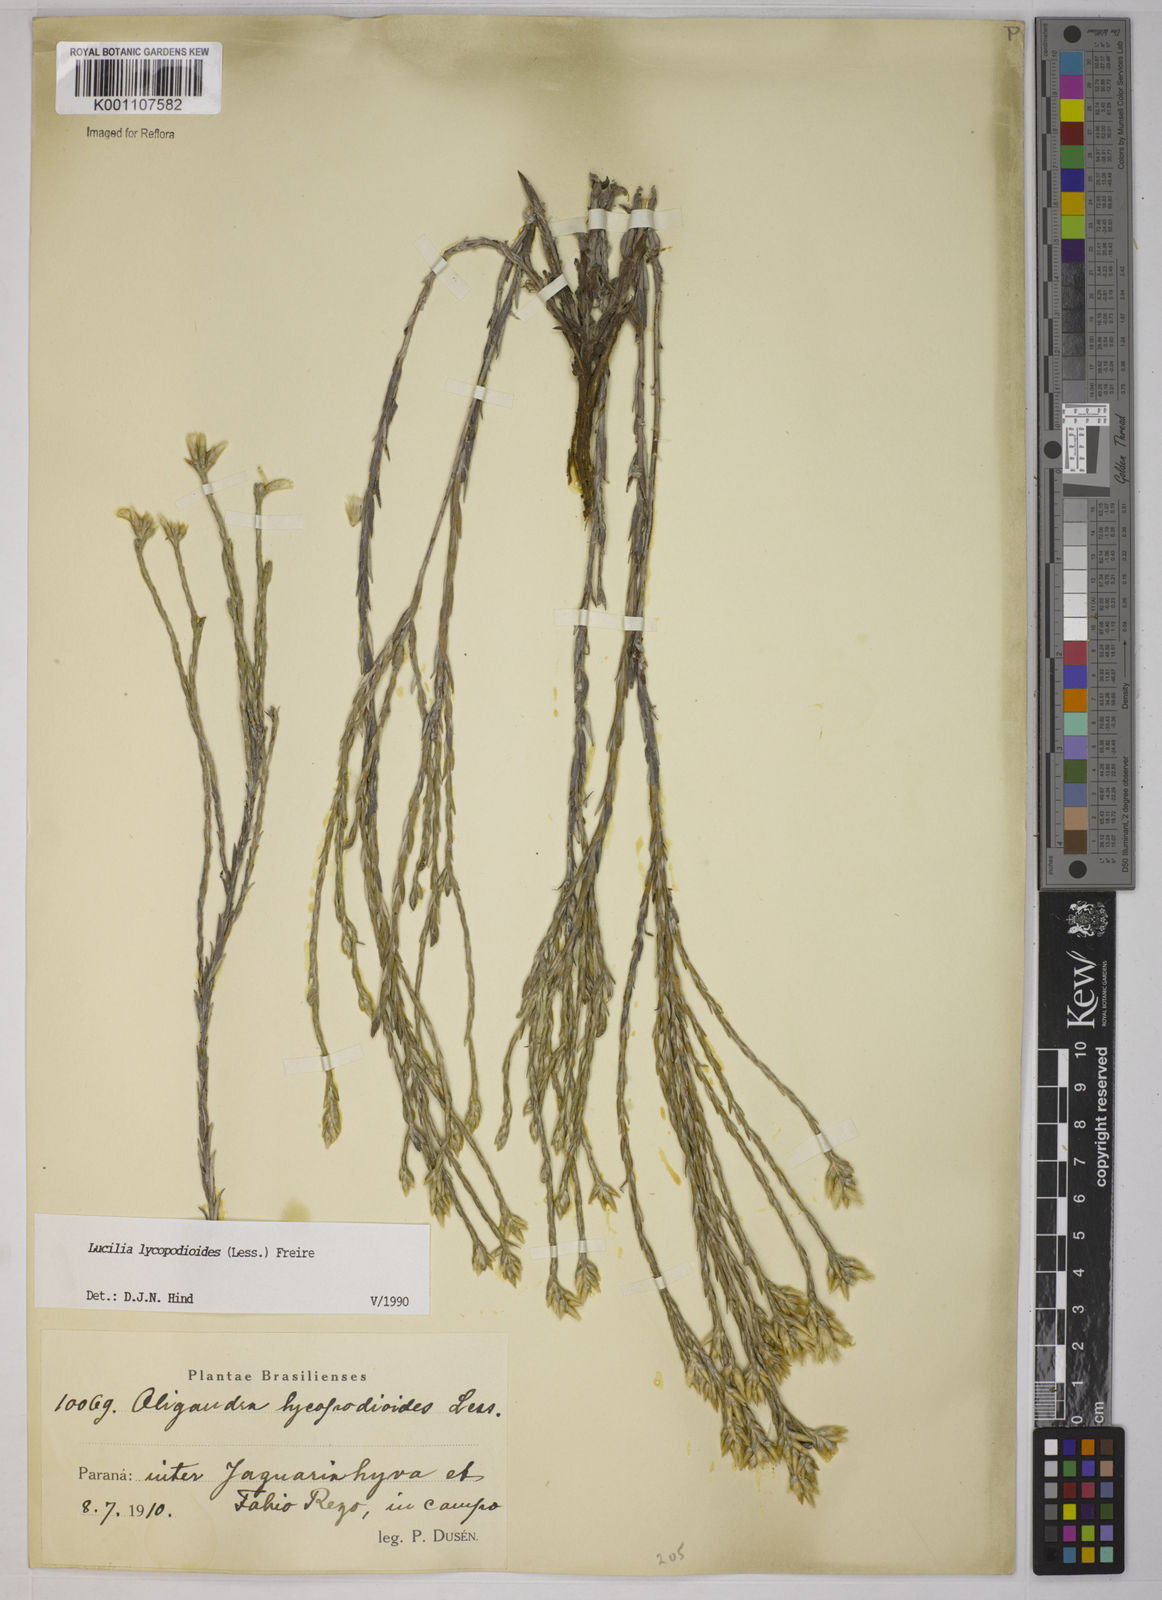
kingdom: Plantae
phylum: Tracheophyta
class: Magnoliopsida
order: Asterales
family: Asteraceae
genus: Lucilia
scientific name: Lucilia lycopodioides
